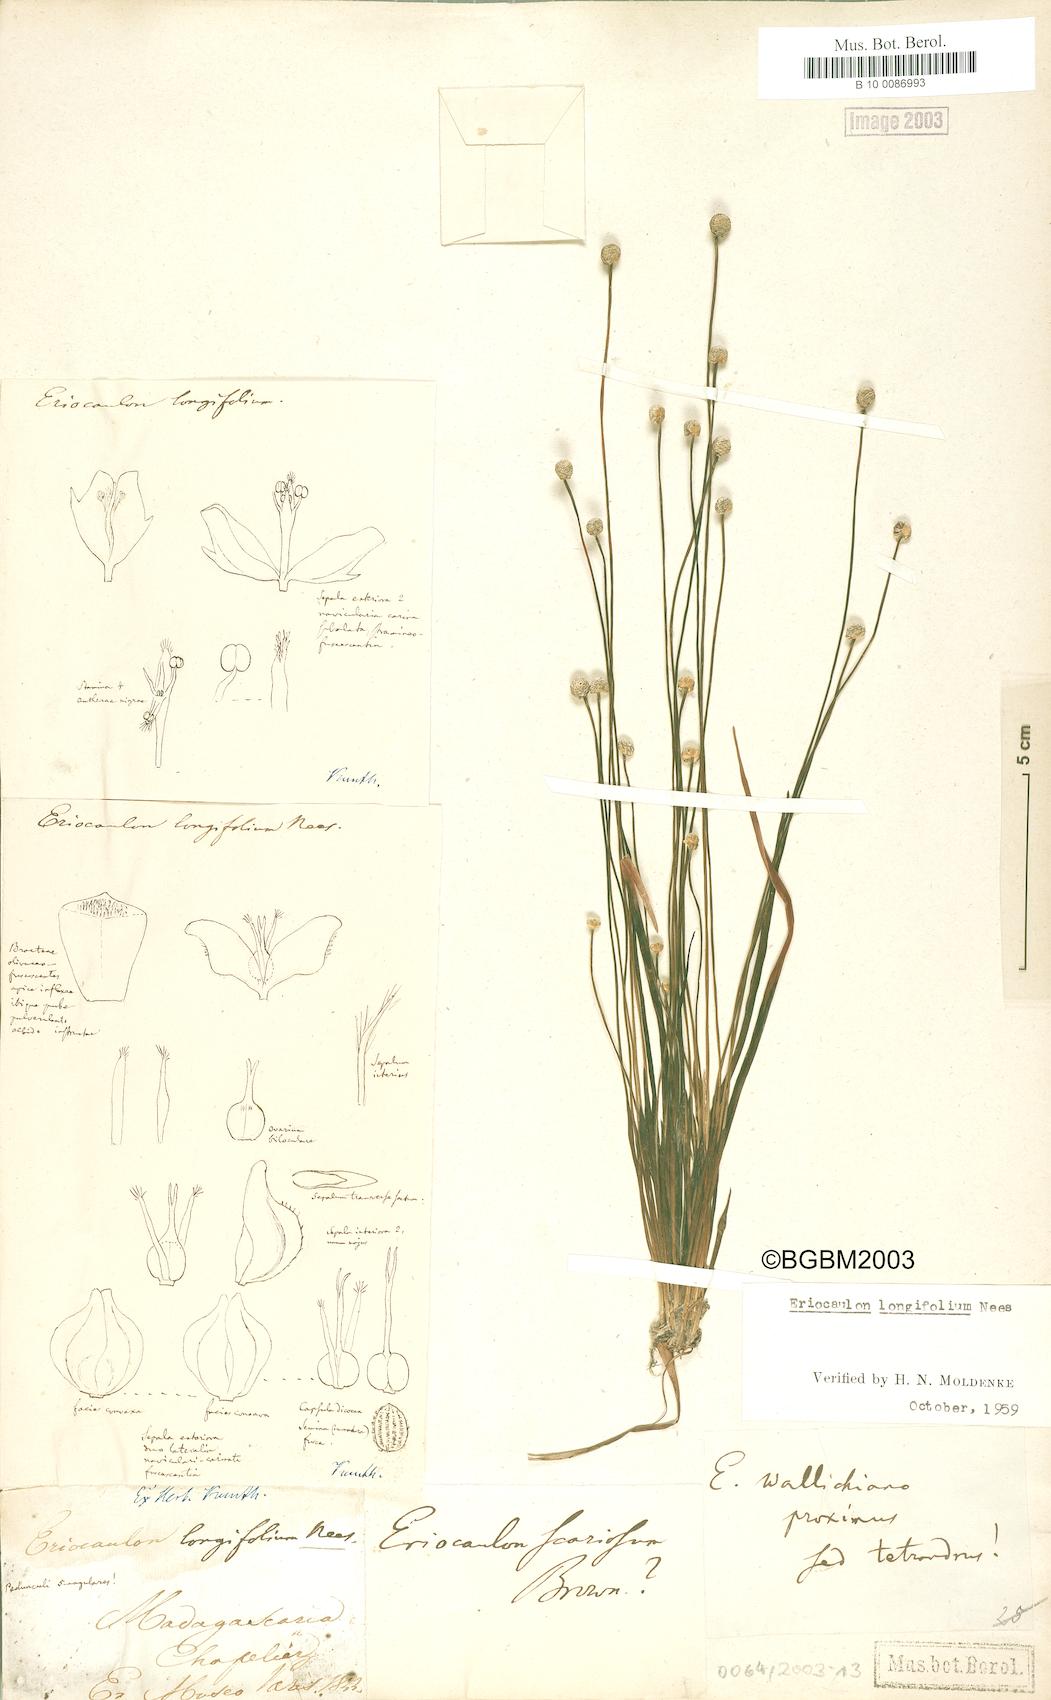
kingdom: Plantae
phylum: Tracheophyta
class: Liliopsida
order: Poales
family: Eriocaulaceae
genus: Eriocaulon
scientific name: Eriocaulon willdenovianum
